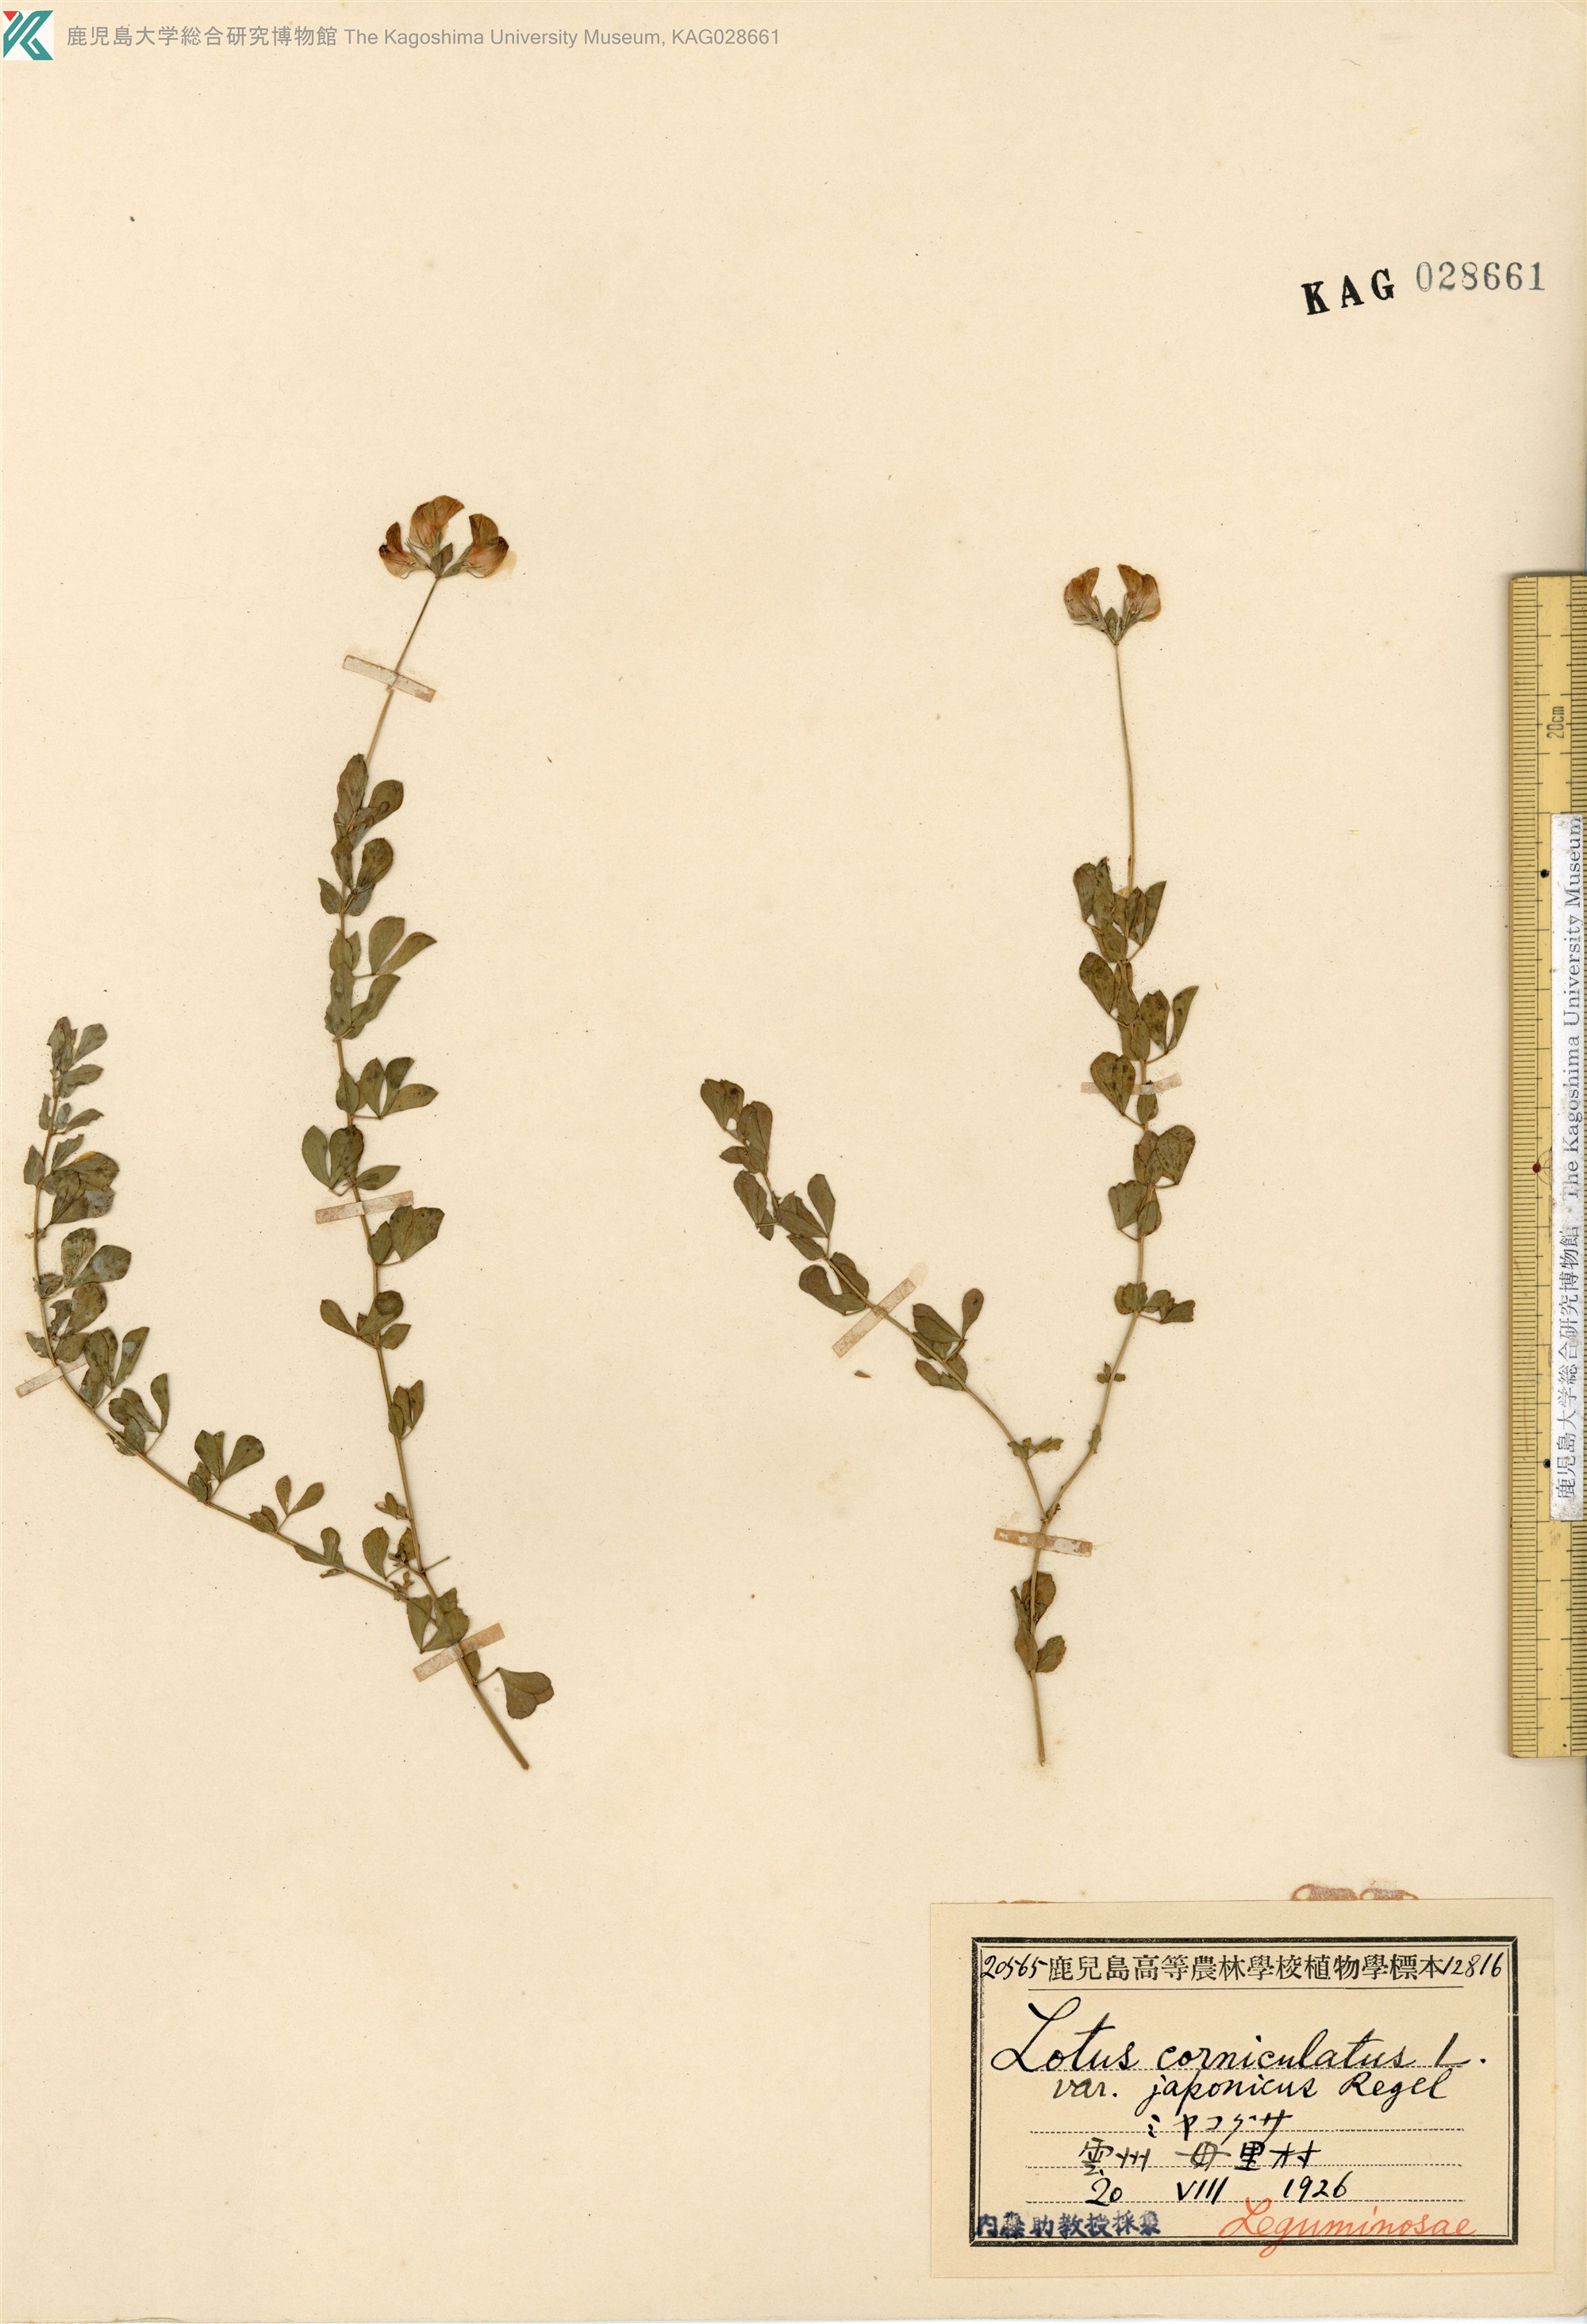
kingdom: Plantae
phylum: Tracheophyta
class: Magnoliopsida
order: Fabales
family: Fabaceae
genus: Lotus
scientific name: Lotus japonicus
